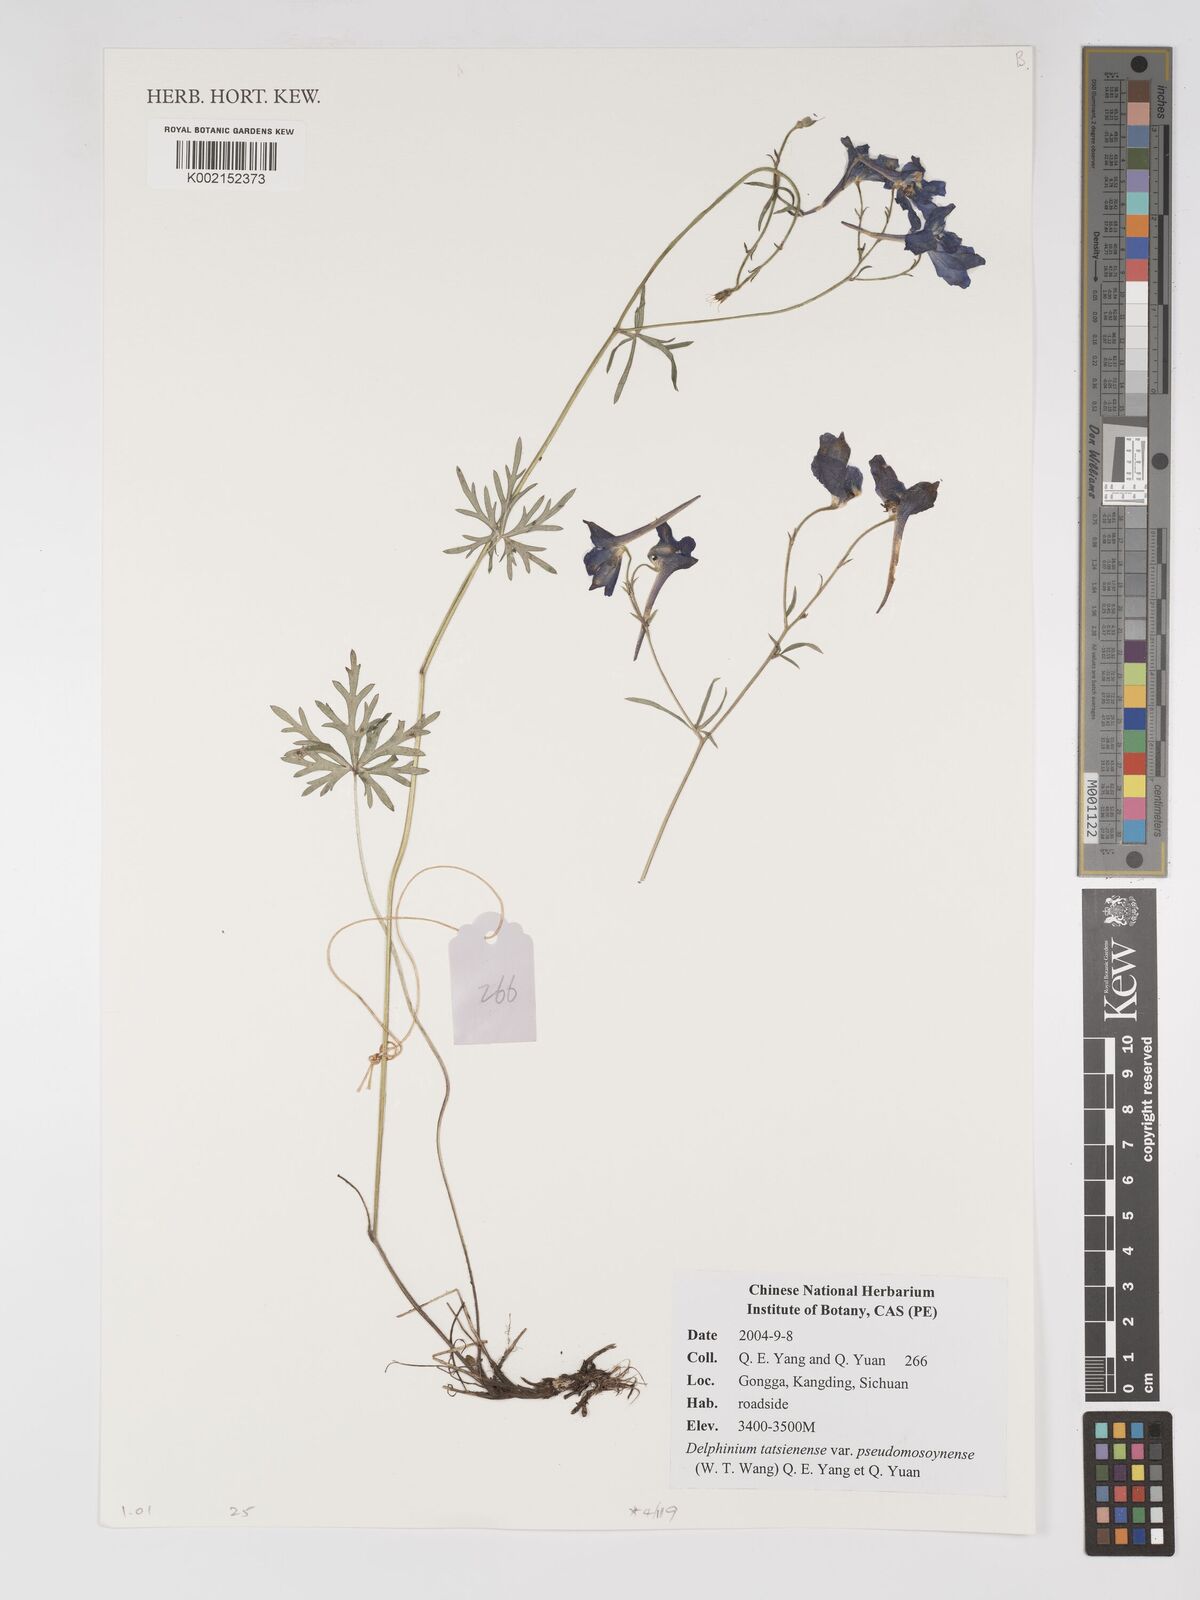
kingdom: Plantae
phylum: Tracheophyta
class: Magnoliopsida
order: Ranunculales
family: Ranunculaceae
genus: Delphinium
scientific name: Delphinium tatsienense
